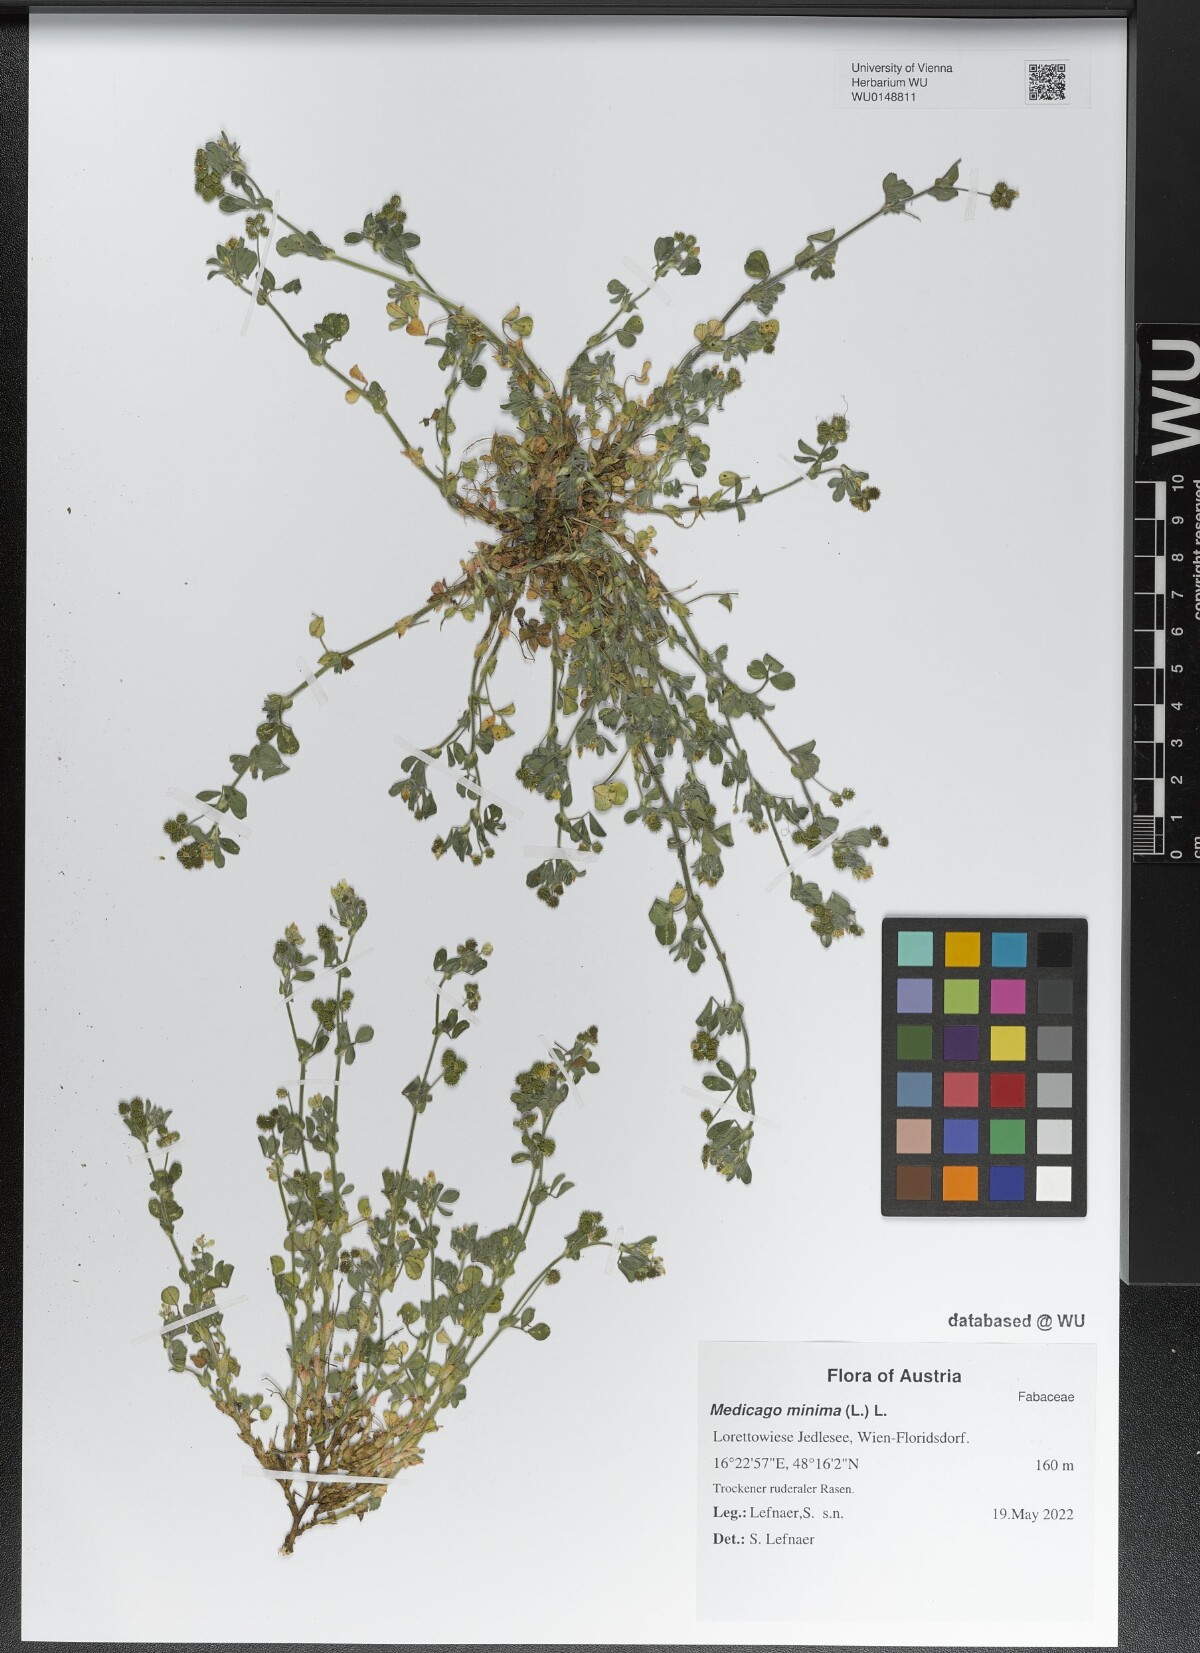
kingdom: Plantae
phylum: Tracheophyta
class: Magnoliopsida
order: Fabales
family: Fabaceae
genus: Medicago
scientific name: Medicago minima
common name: Little bur-clover
